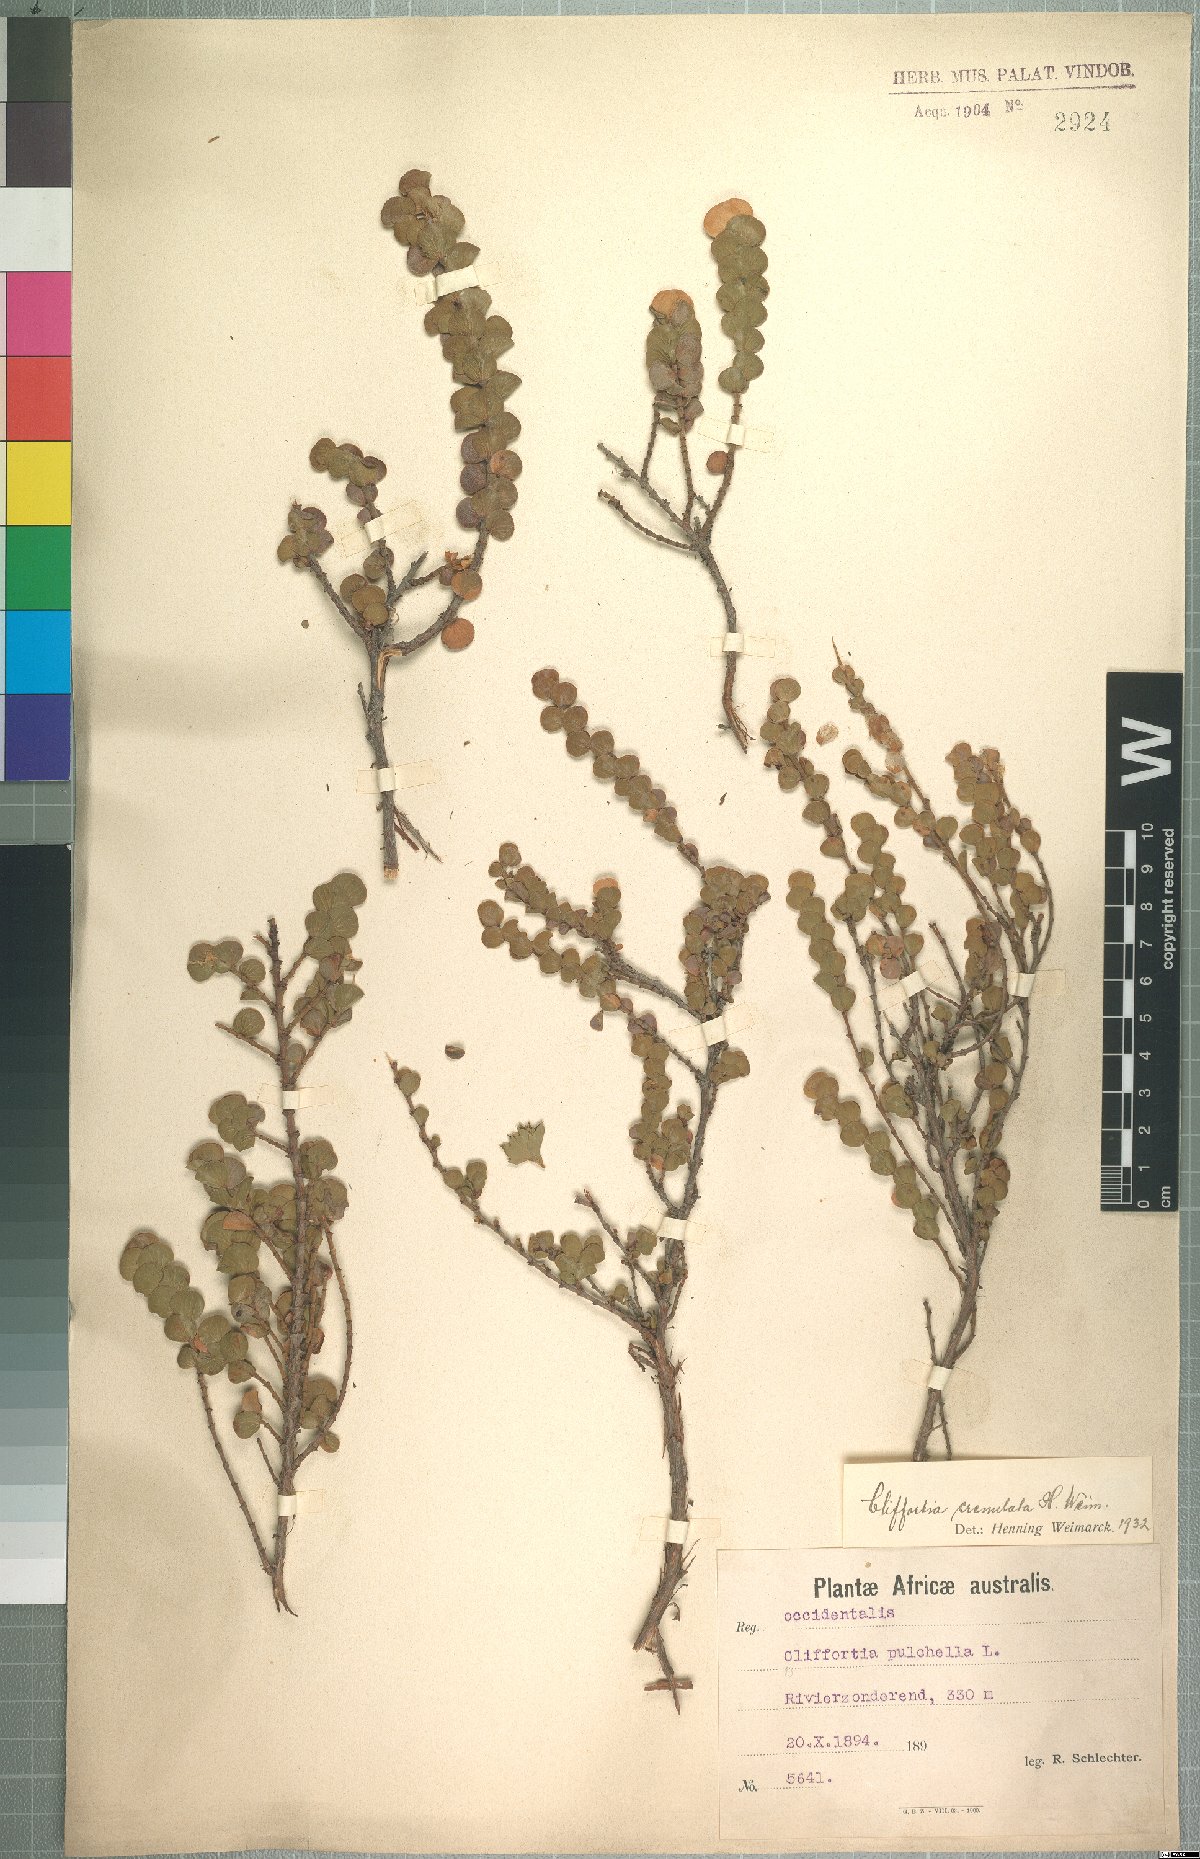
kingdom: Plantae
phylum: Tracheophyta
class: Magnoliopsida
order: Rosales
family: Rosaceae
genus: Cliffortia
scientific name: Cliffortia crenulata
